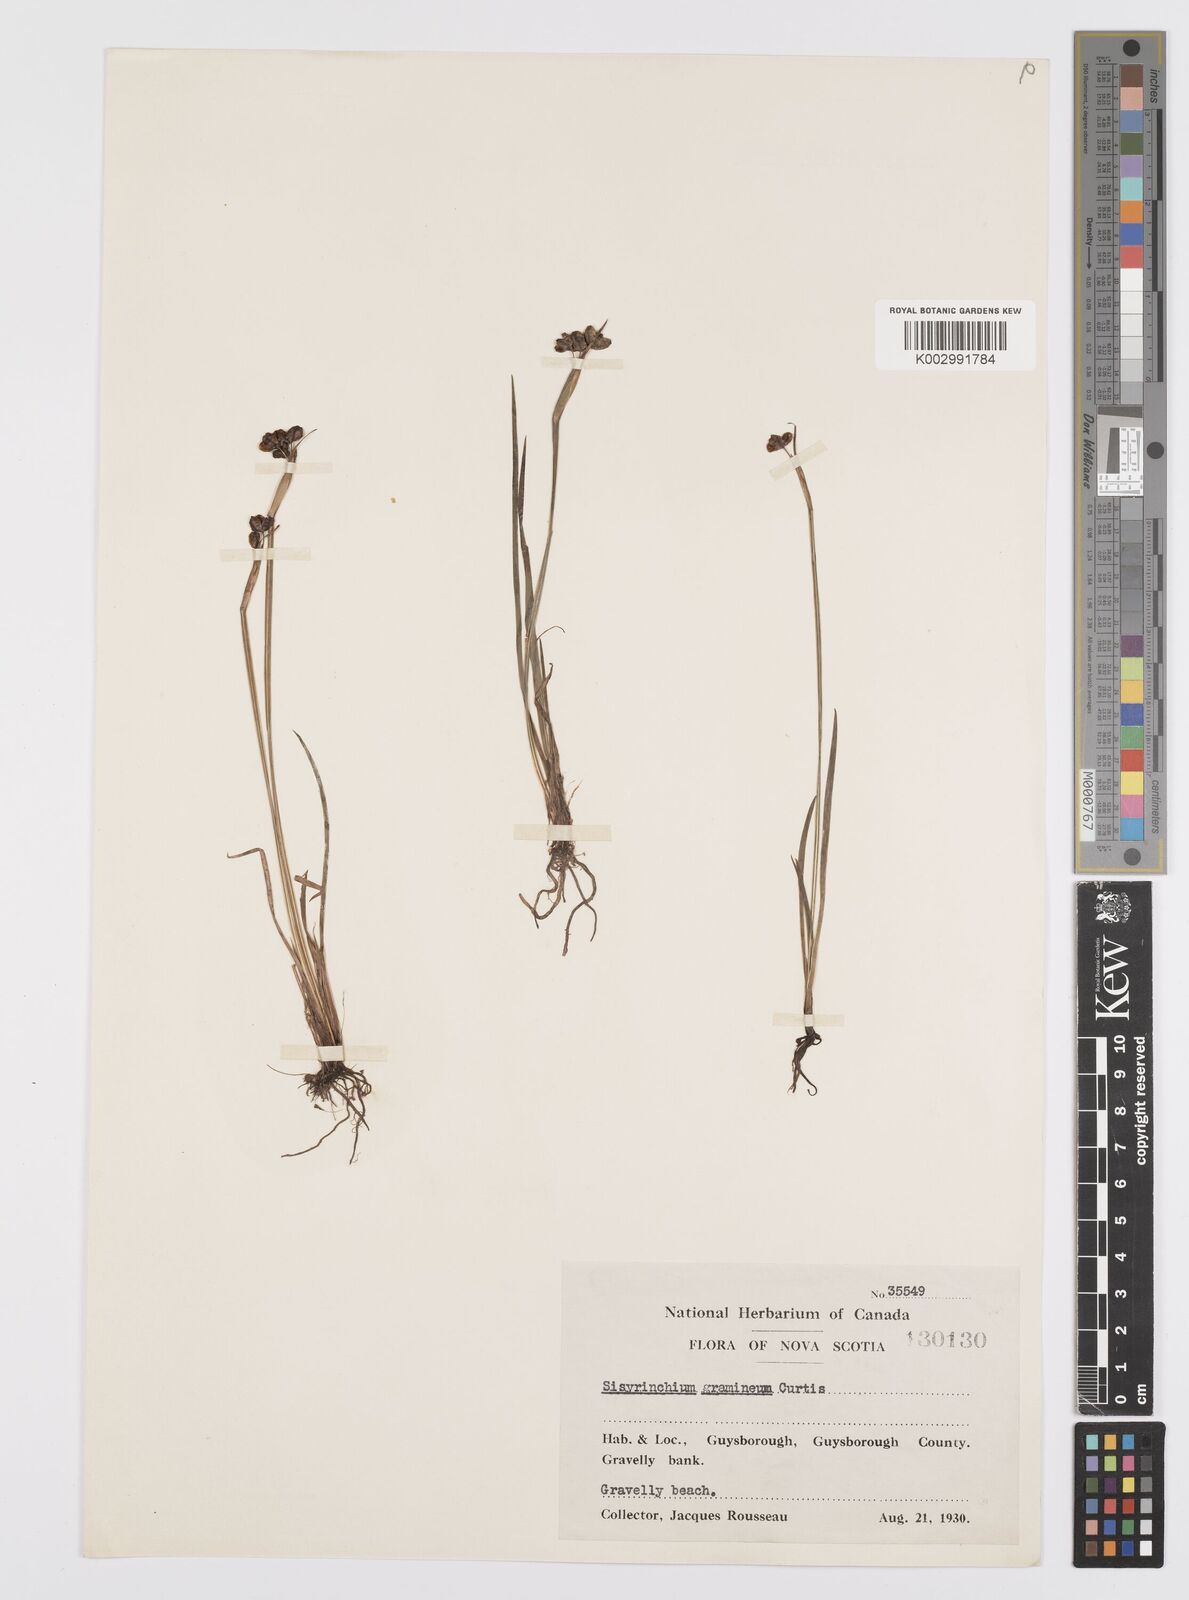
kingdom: Plantae
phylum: Tracheophyta
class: Liliopsida
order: Asparagales
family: Iridaceae
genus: Sisyrinchium
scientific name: Sisyrinchium bermudiana
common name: Blue-eyed-grass
